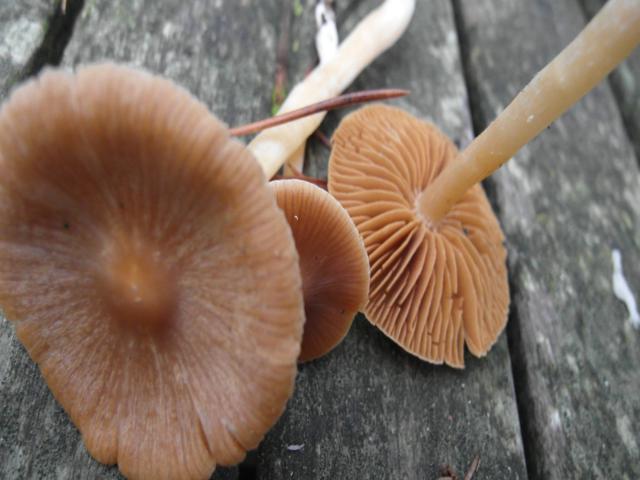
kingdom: Fungi
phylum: Basidiomycota
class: Agaricomycetes
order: Agaricales
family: Cortinariaceae
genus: Cortinarius
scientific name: Cortinarius
